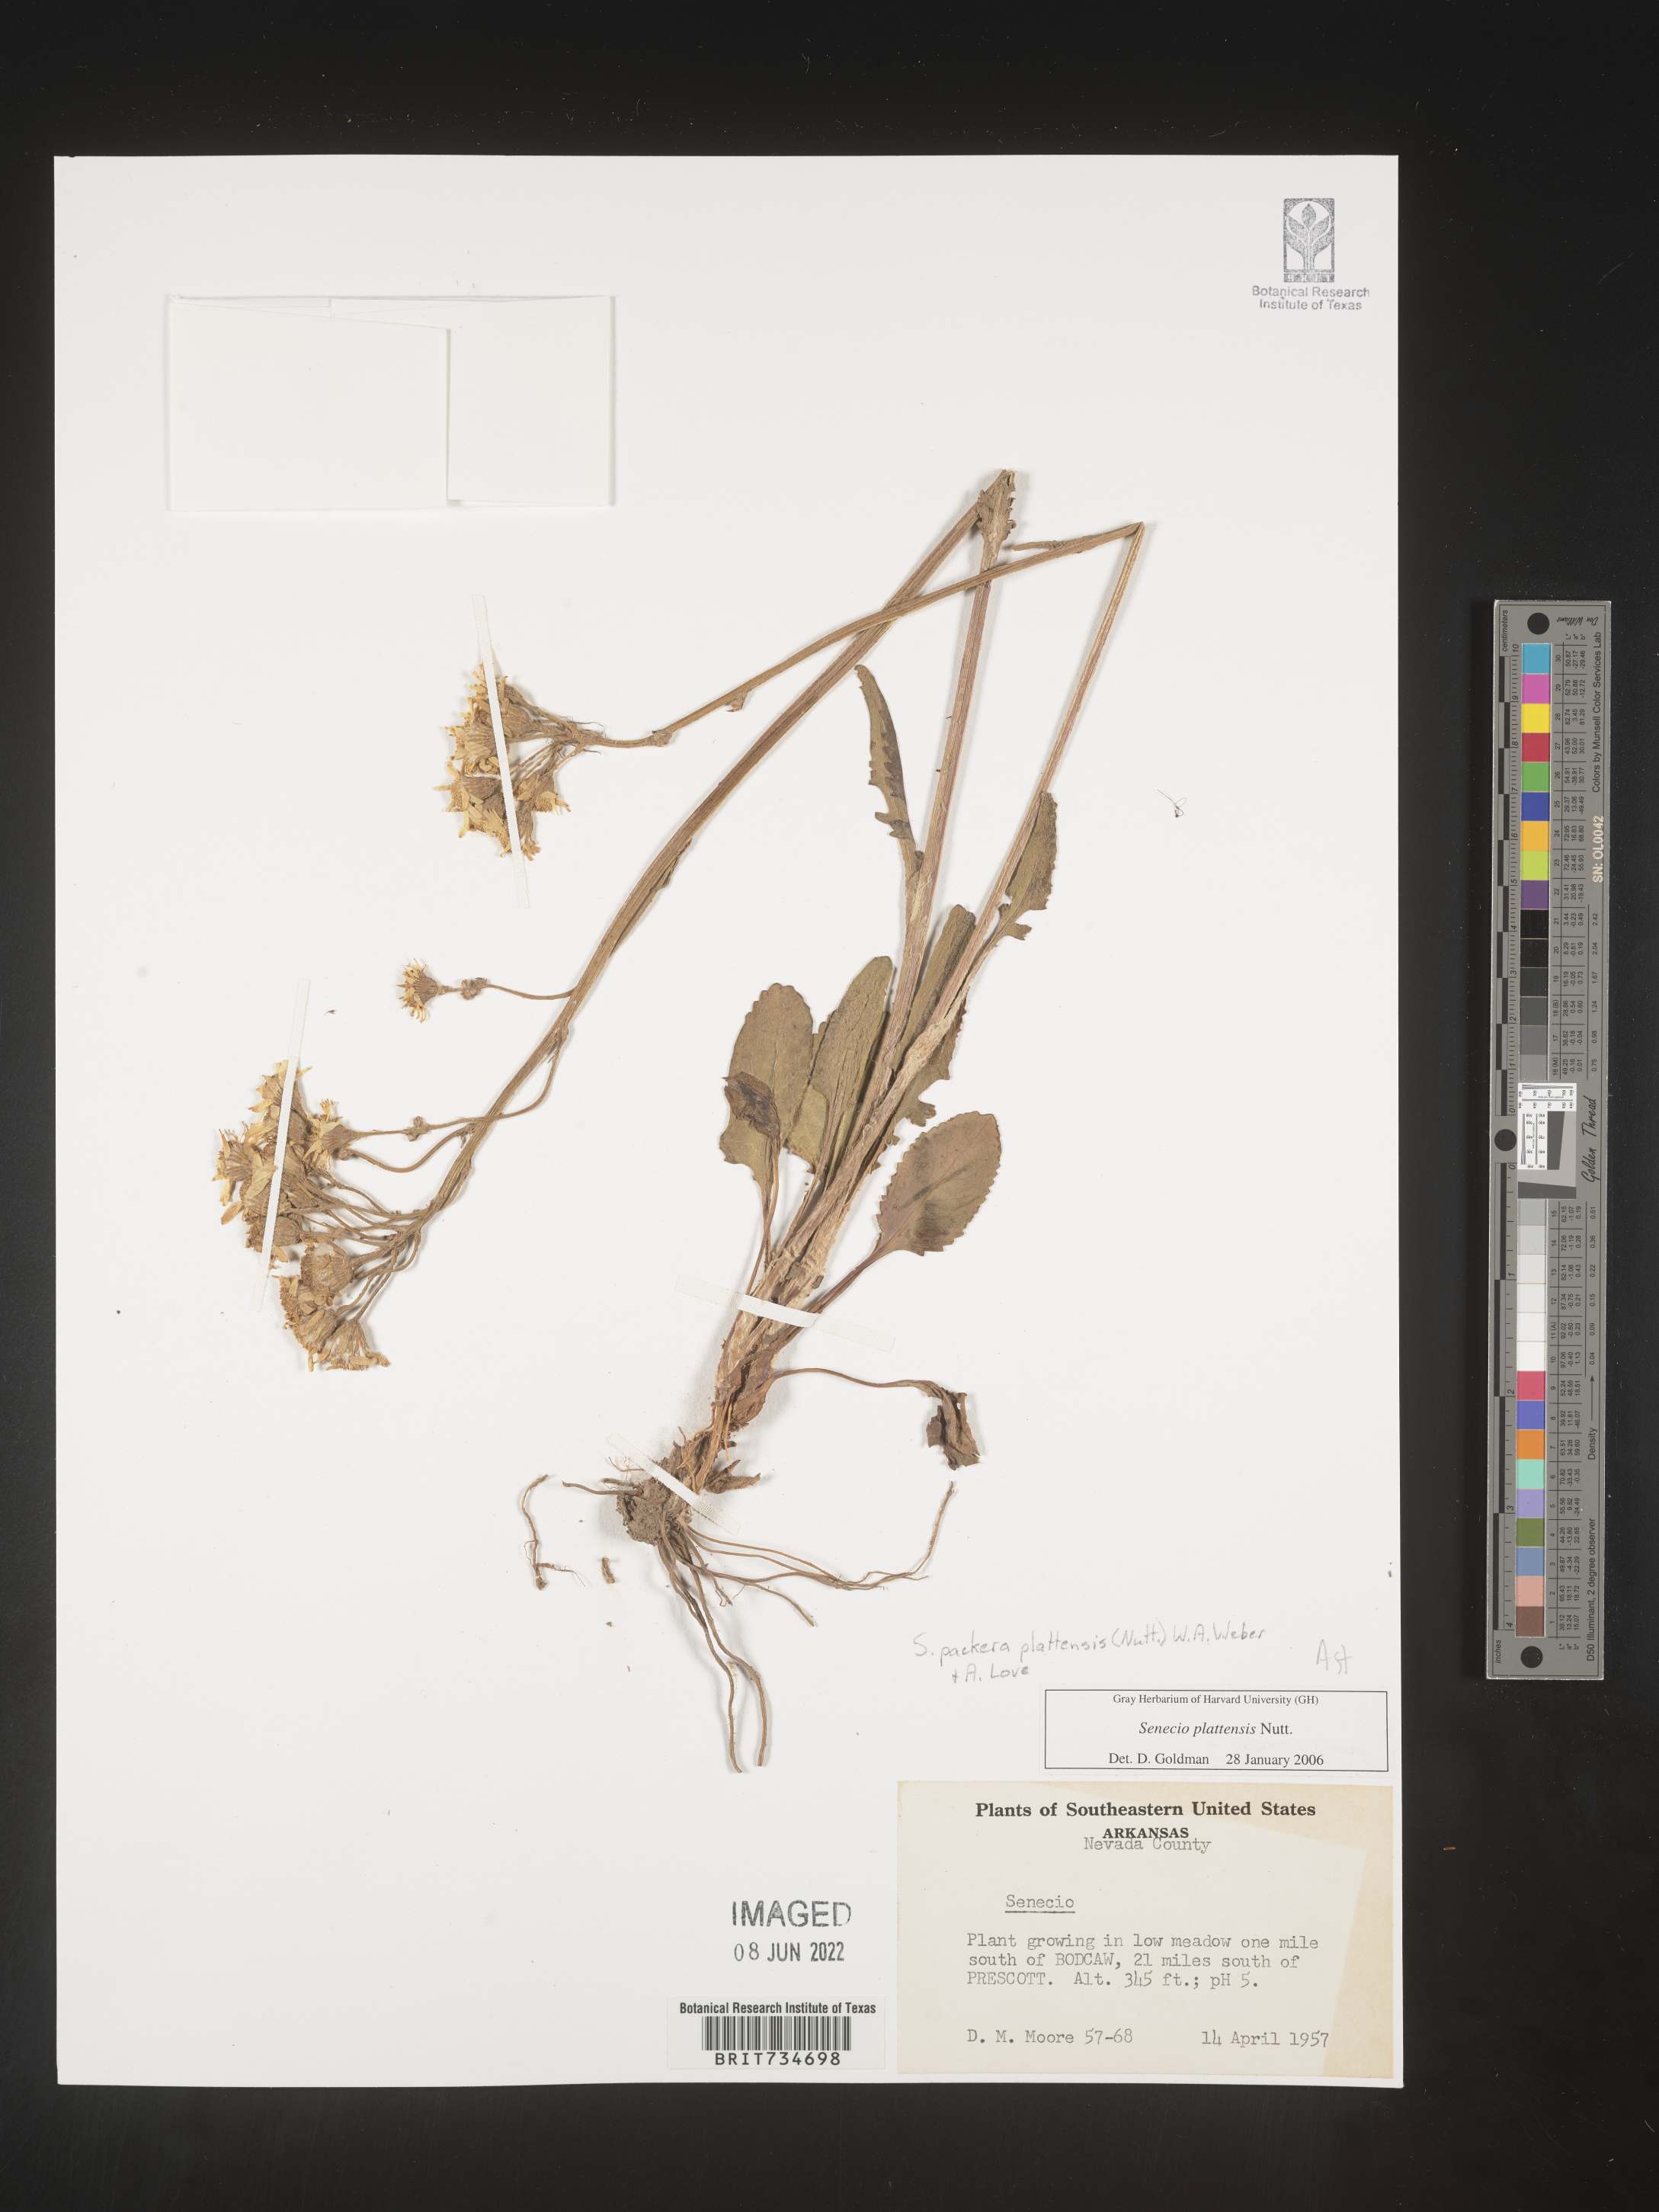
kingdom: Plantae
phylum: Tracheophyta
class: Magnoliopsida
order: Asterales
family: Asteraceae
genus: Packera
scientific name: Packera plattensis
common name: Prairie groundsel
